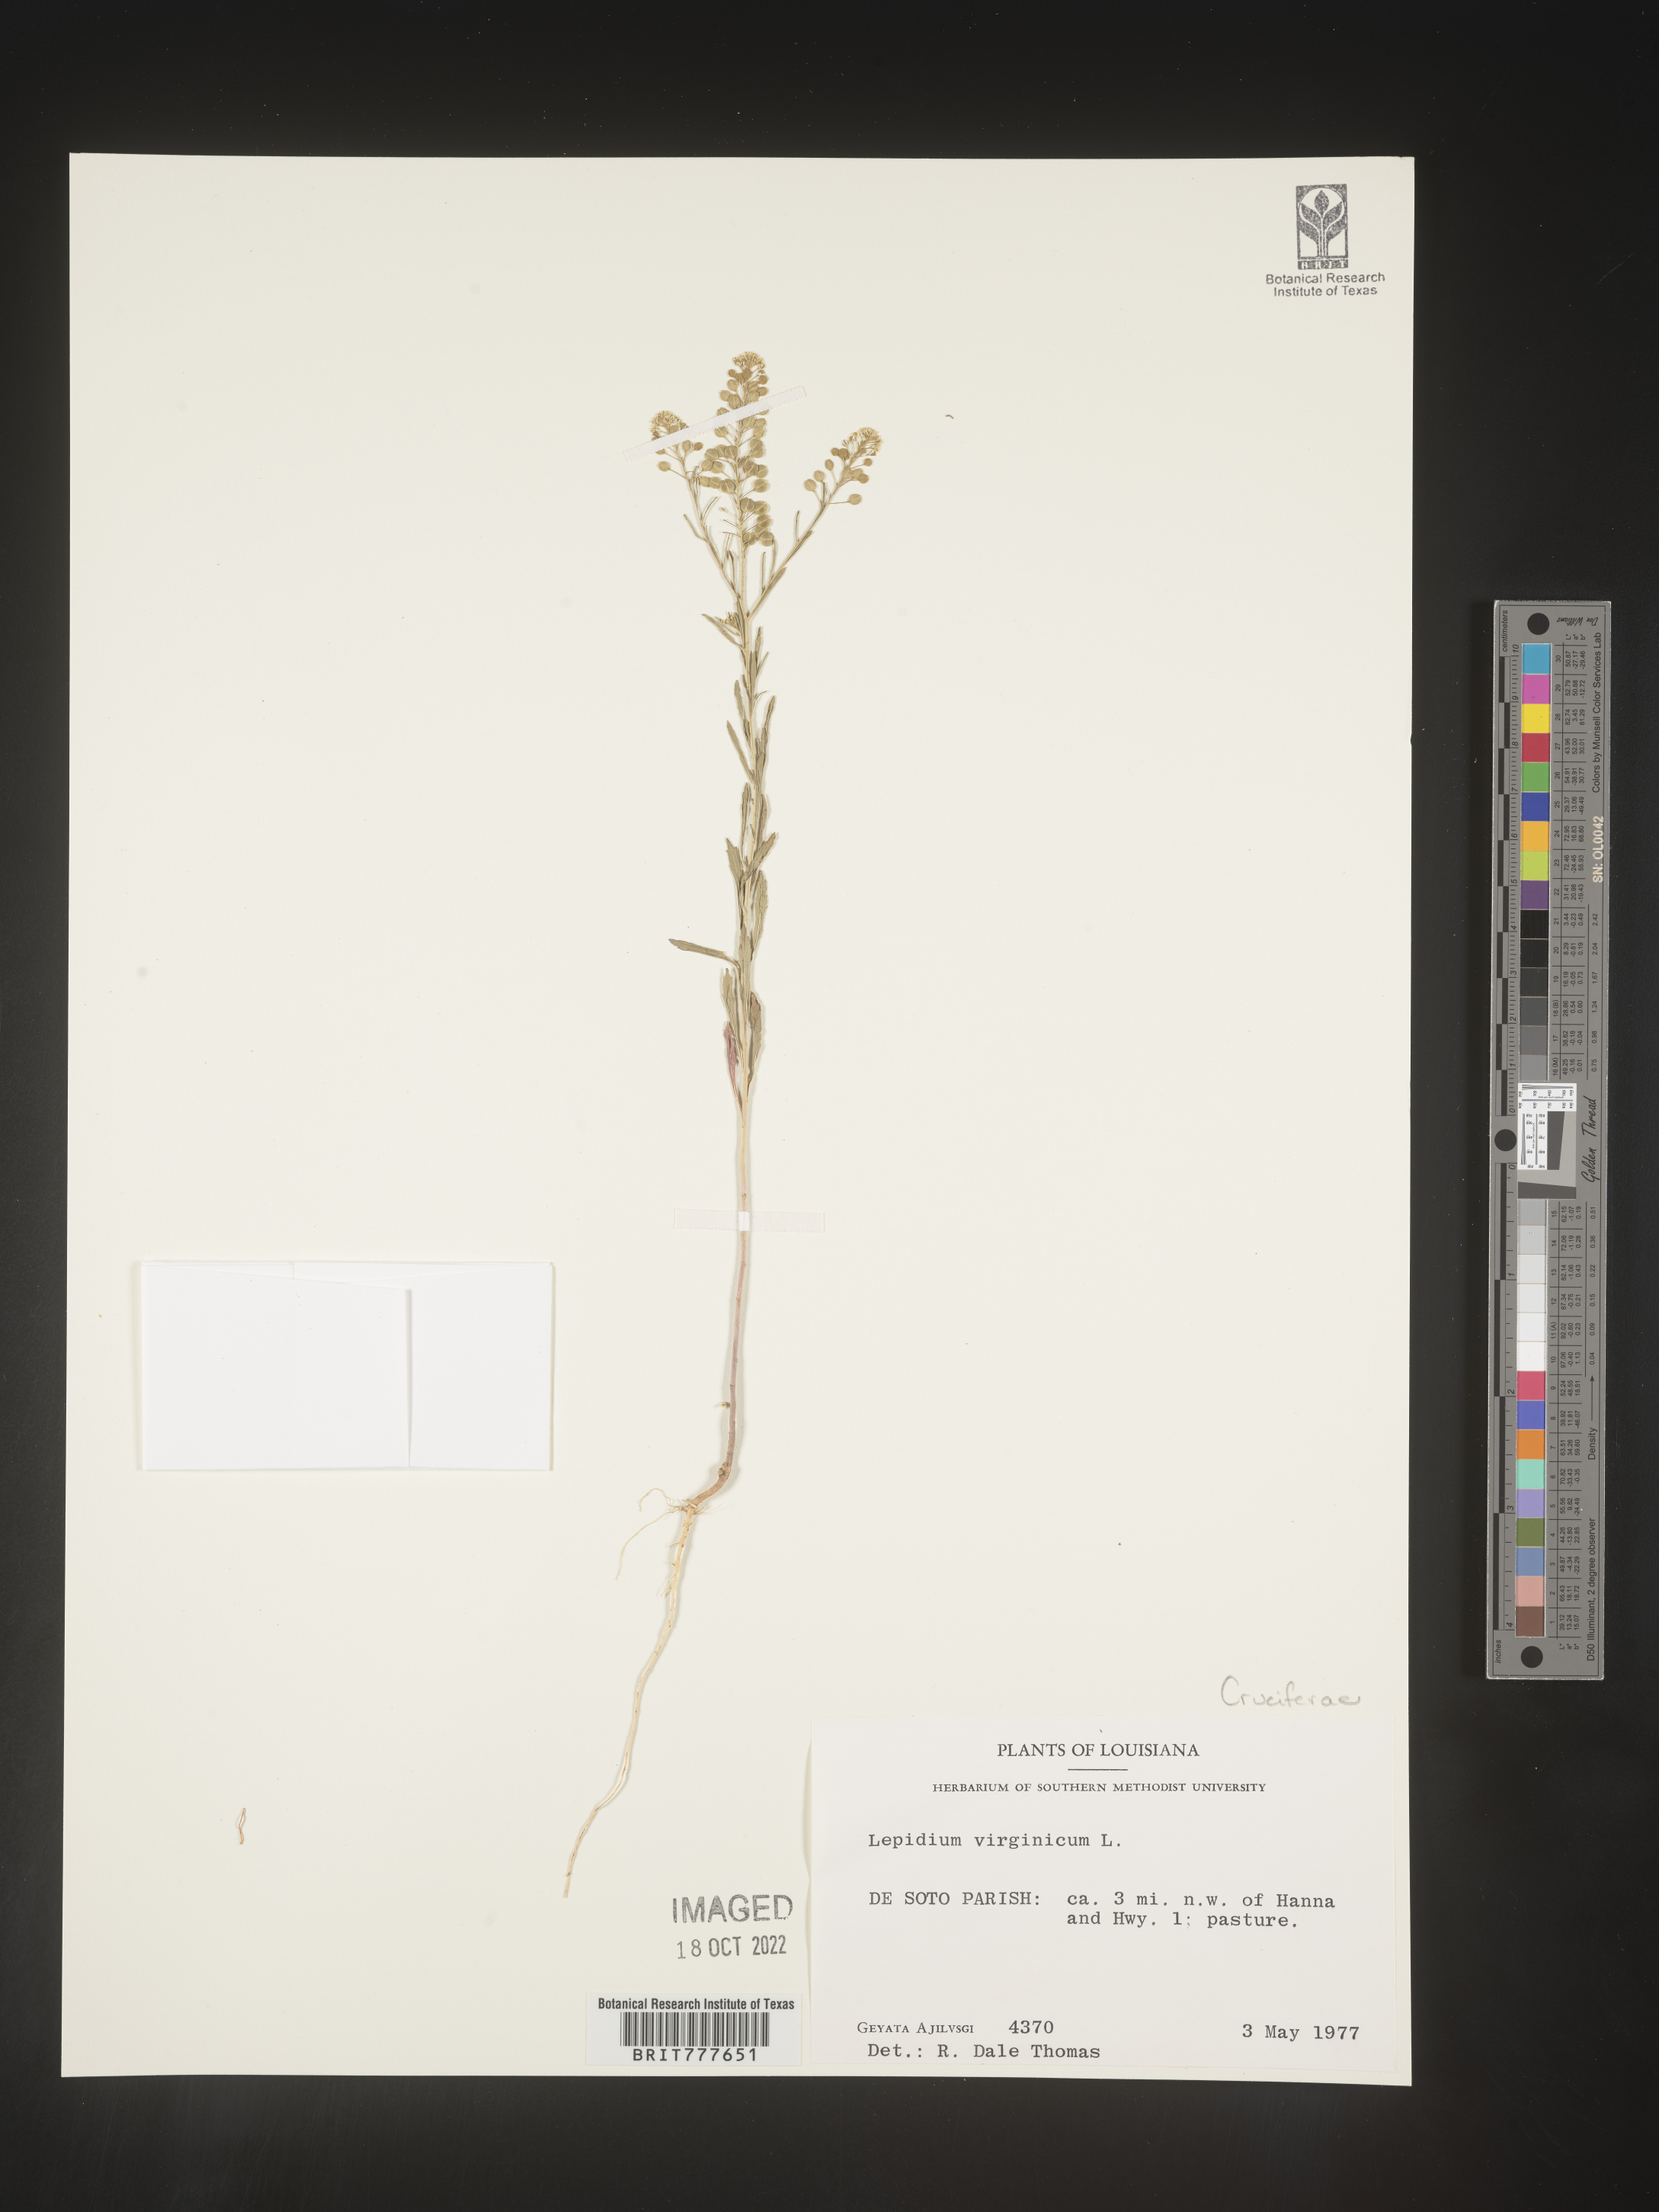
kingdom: Plantae
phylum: Tracheophyta
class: Magnoliopsida
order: Brassicales
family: Brassicaceae
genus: Lepidium
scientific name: Lepidium virginicum
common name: Least pepperwort
